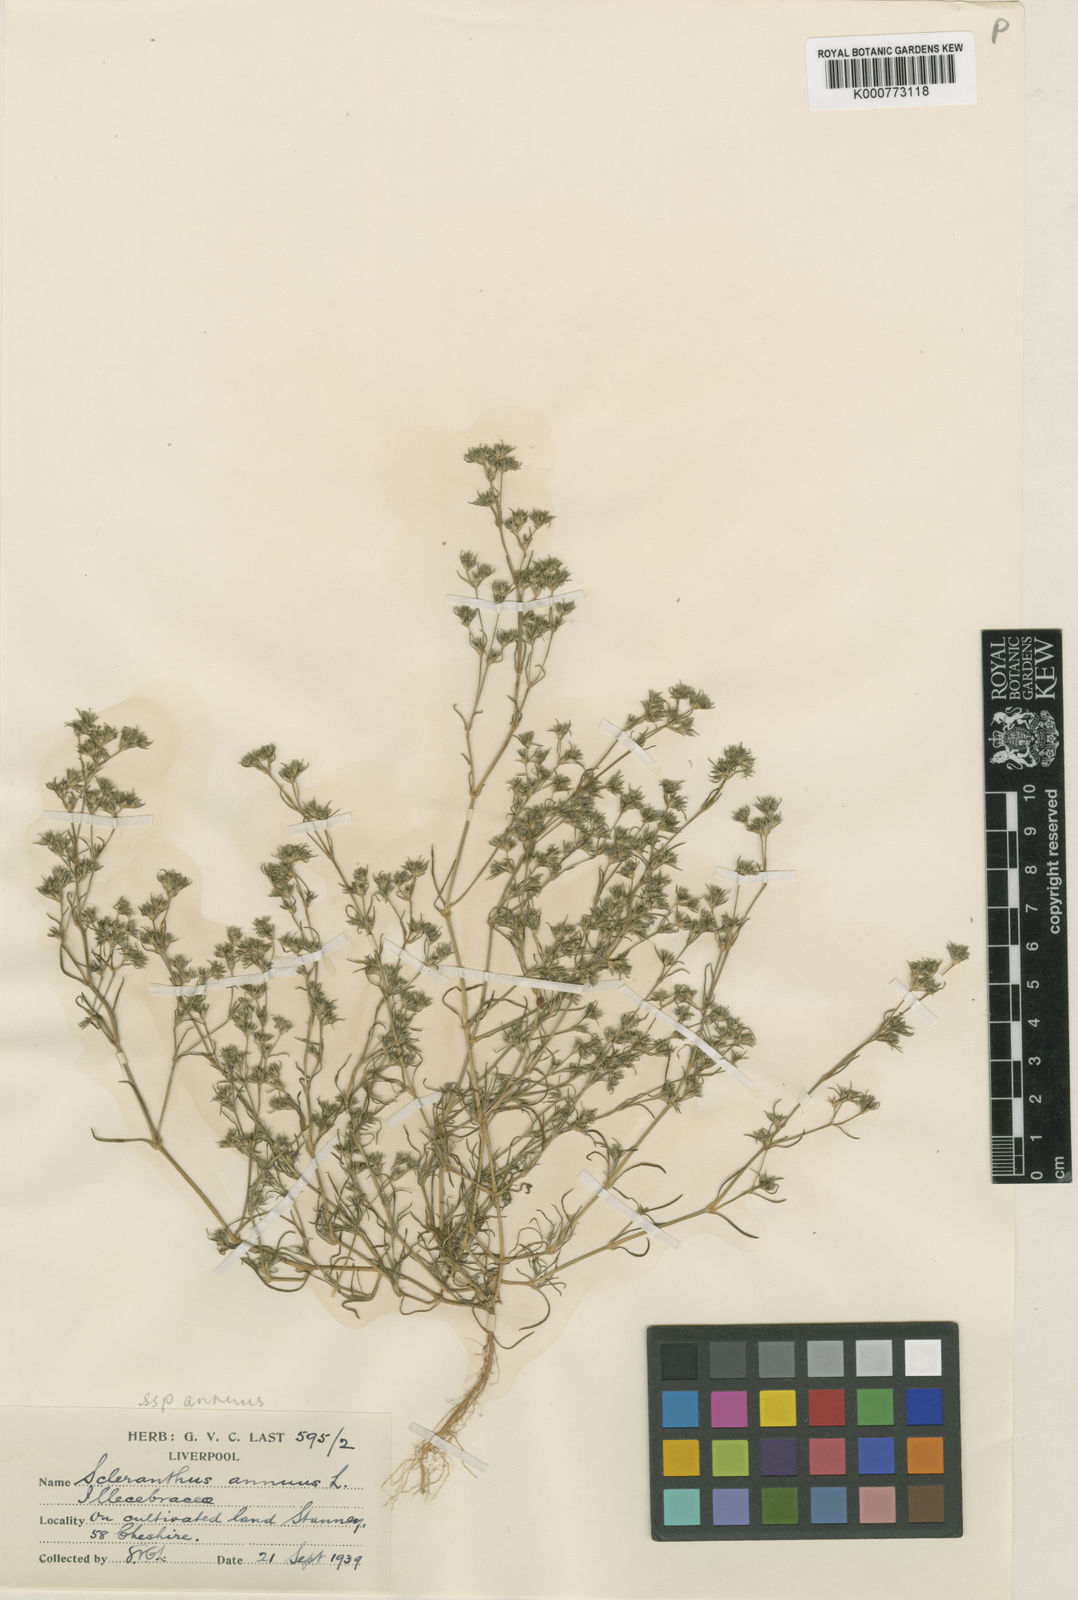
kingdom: Plantae
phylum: Tracheophyta
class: Magnoliopsida
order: Caryophyllales
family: Caryophyllaceae
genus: Scleranthus
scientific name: Scleranthus annuus
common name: Annual knawel
